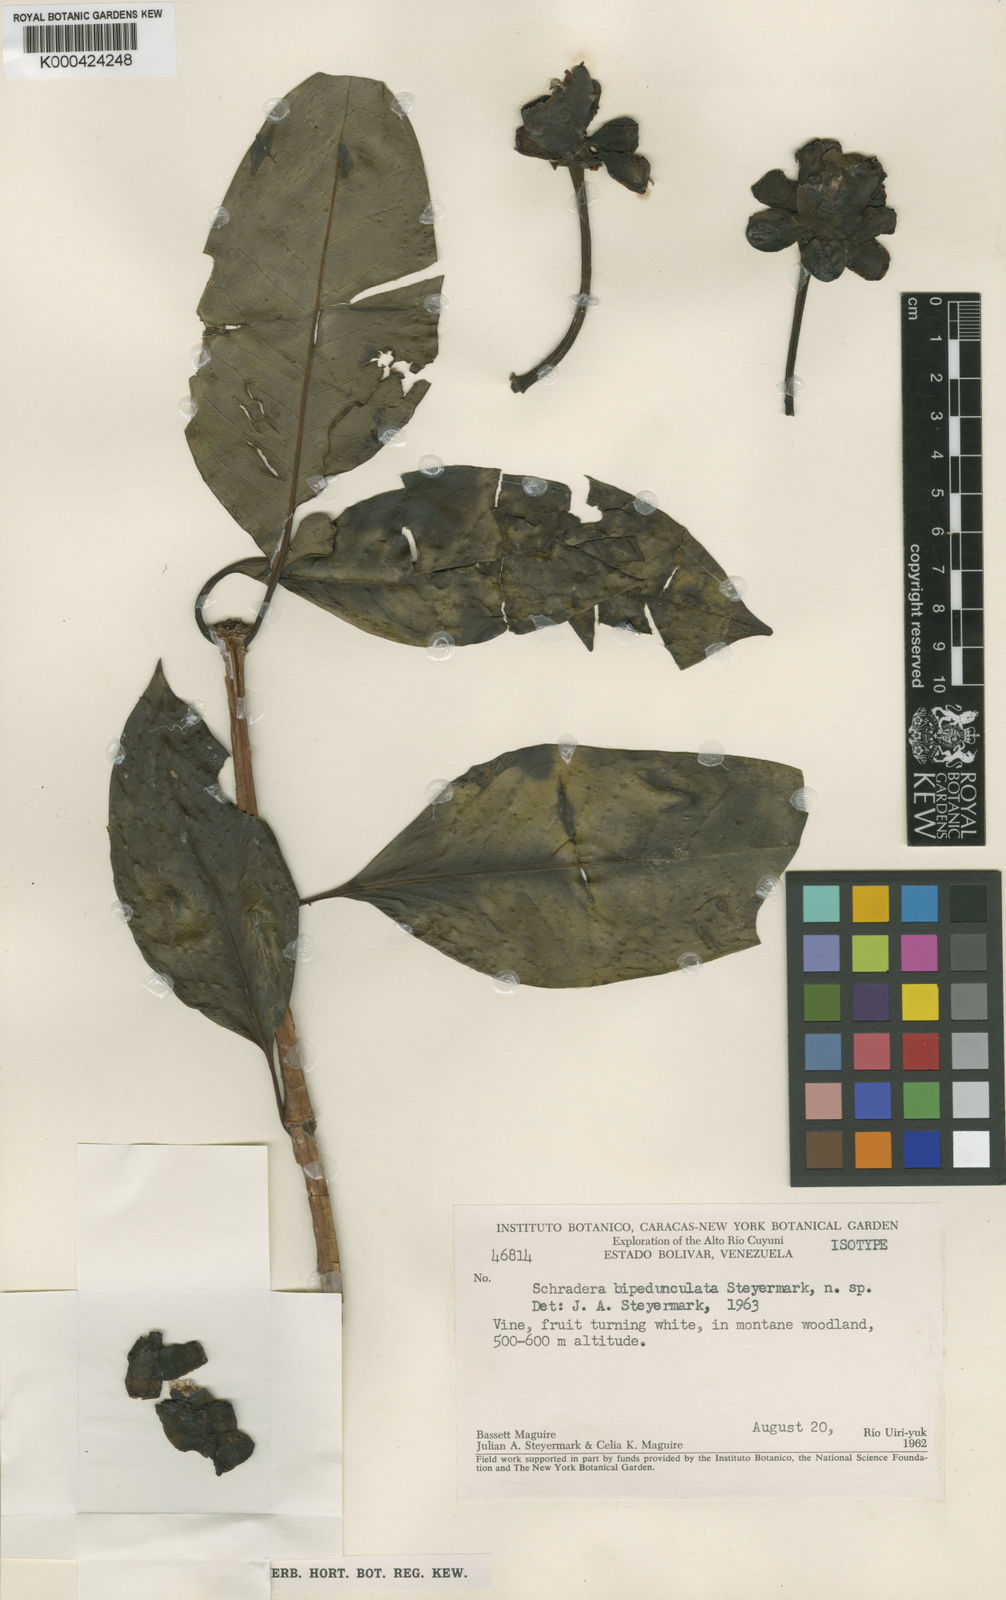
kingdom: Plantae
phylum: Tracheophyta
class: Magnoliopsida
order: Gentianales
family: Rubiaceae
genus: Schradera
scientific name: Schradera bipedunculata
